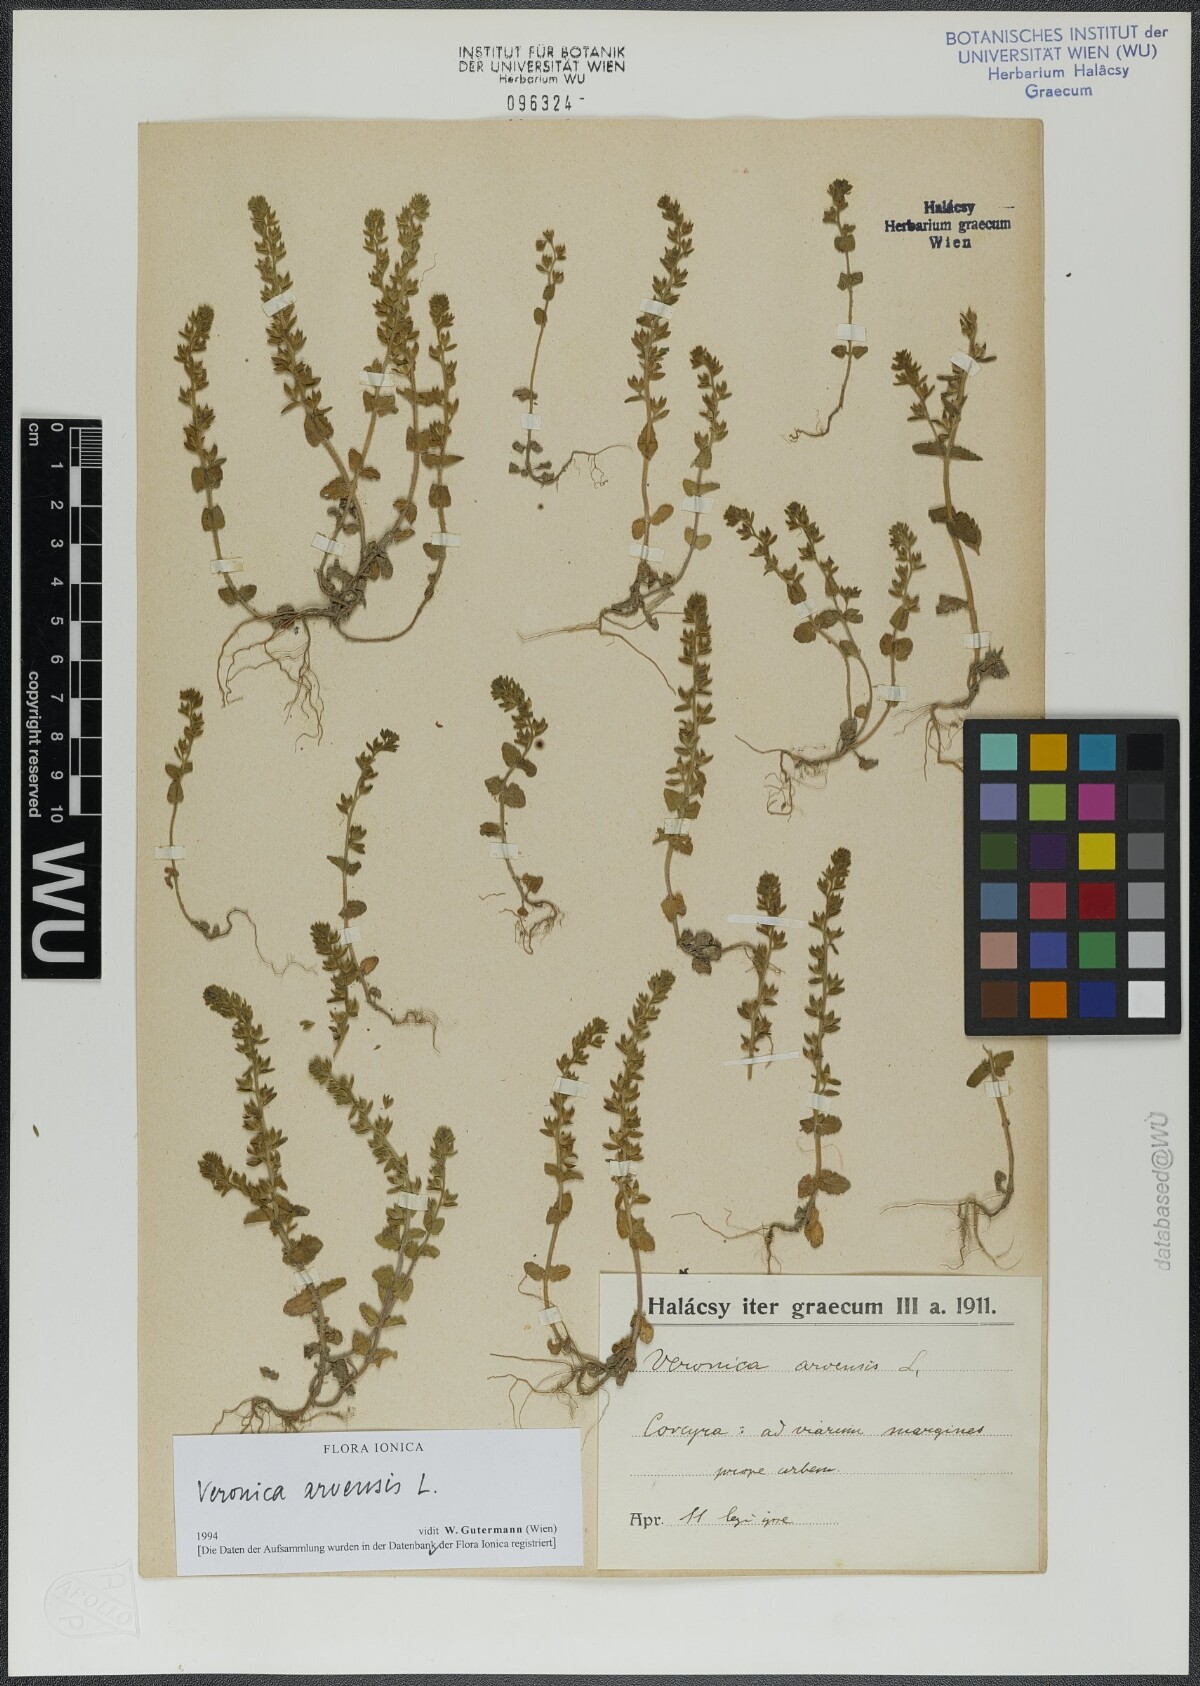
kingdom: Plantae
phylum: Tracheophyta
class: Magnoliopsida
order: Lamiales
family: Plantaginaceae
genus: Veronica
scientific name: Veronica arvensis
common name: Corn speedwell
